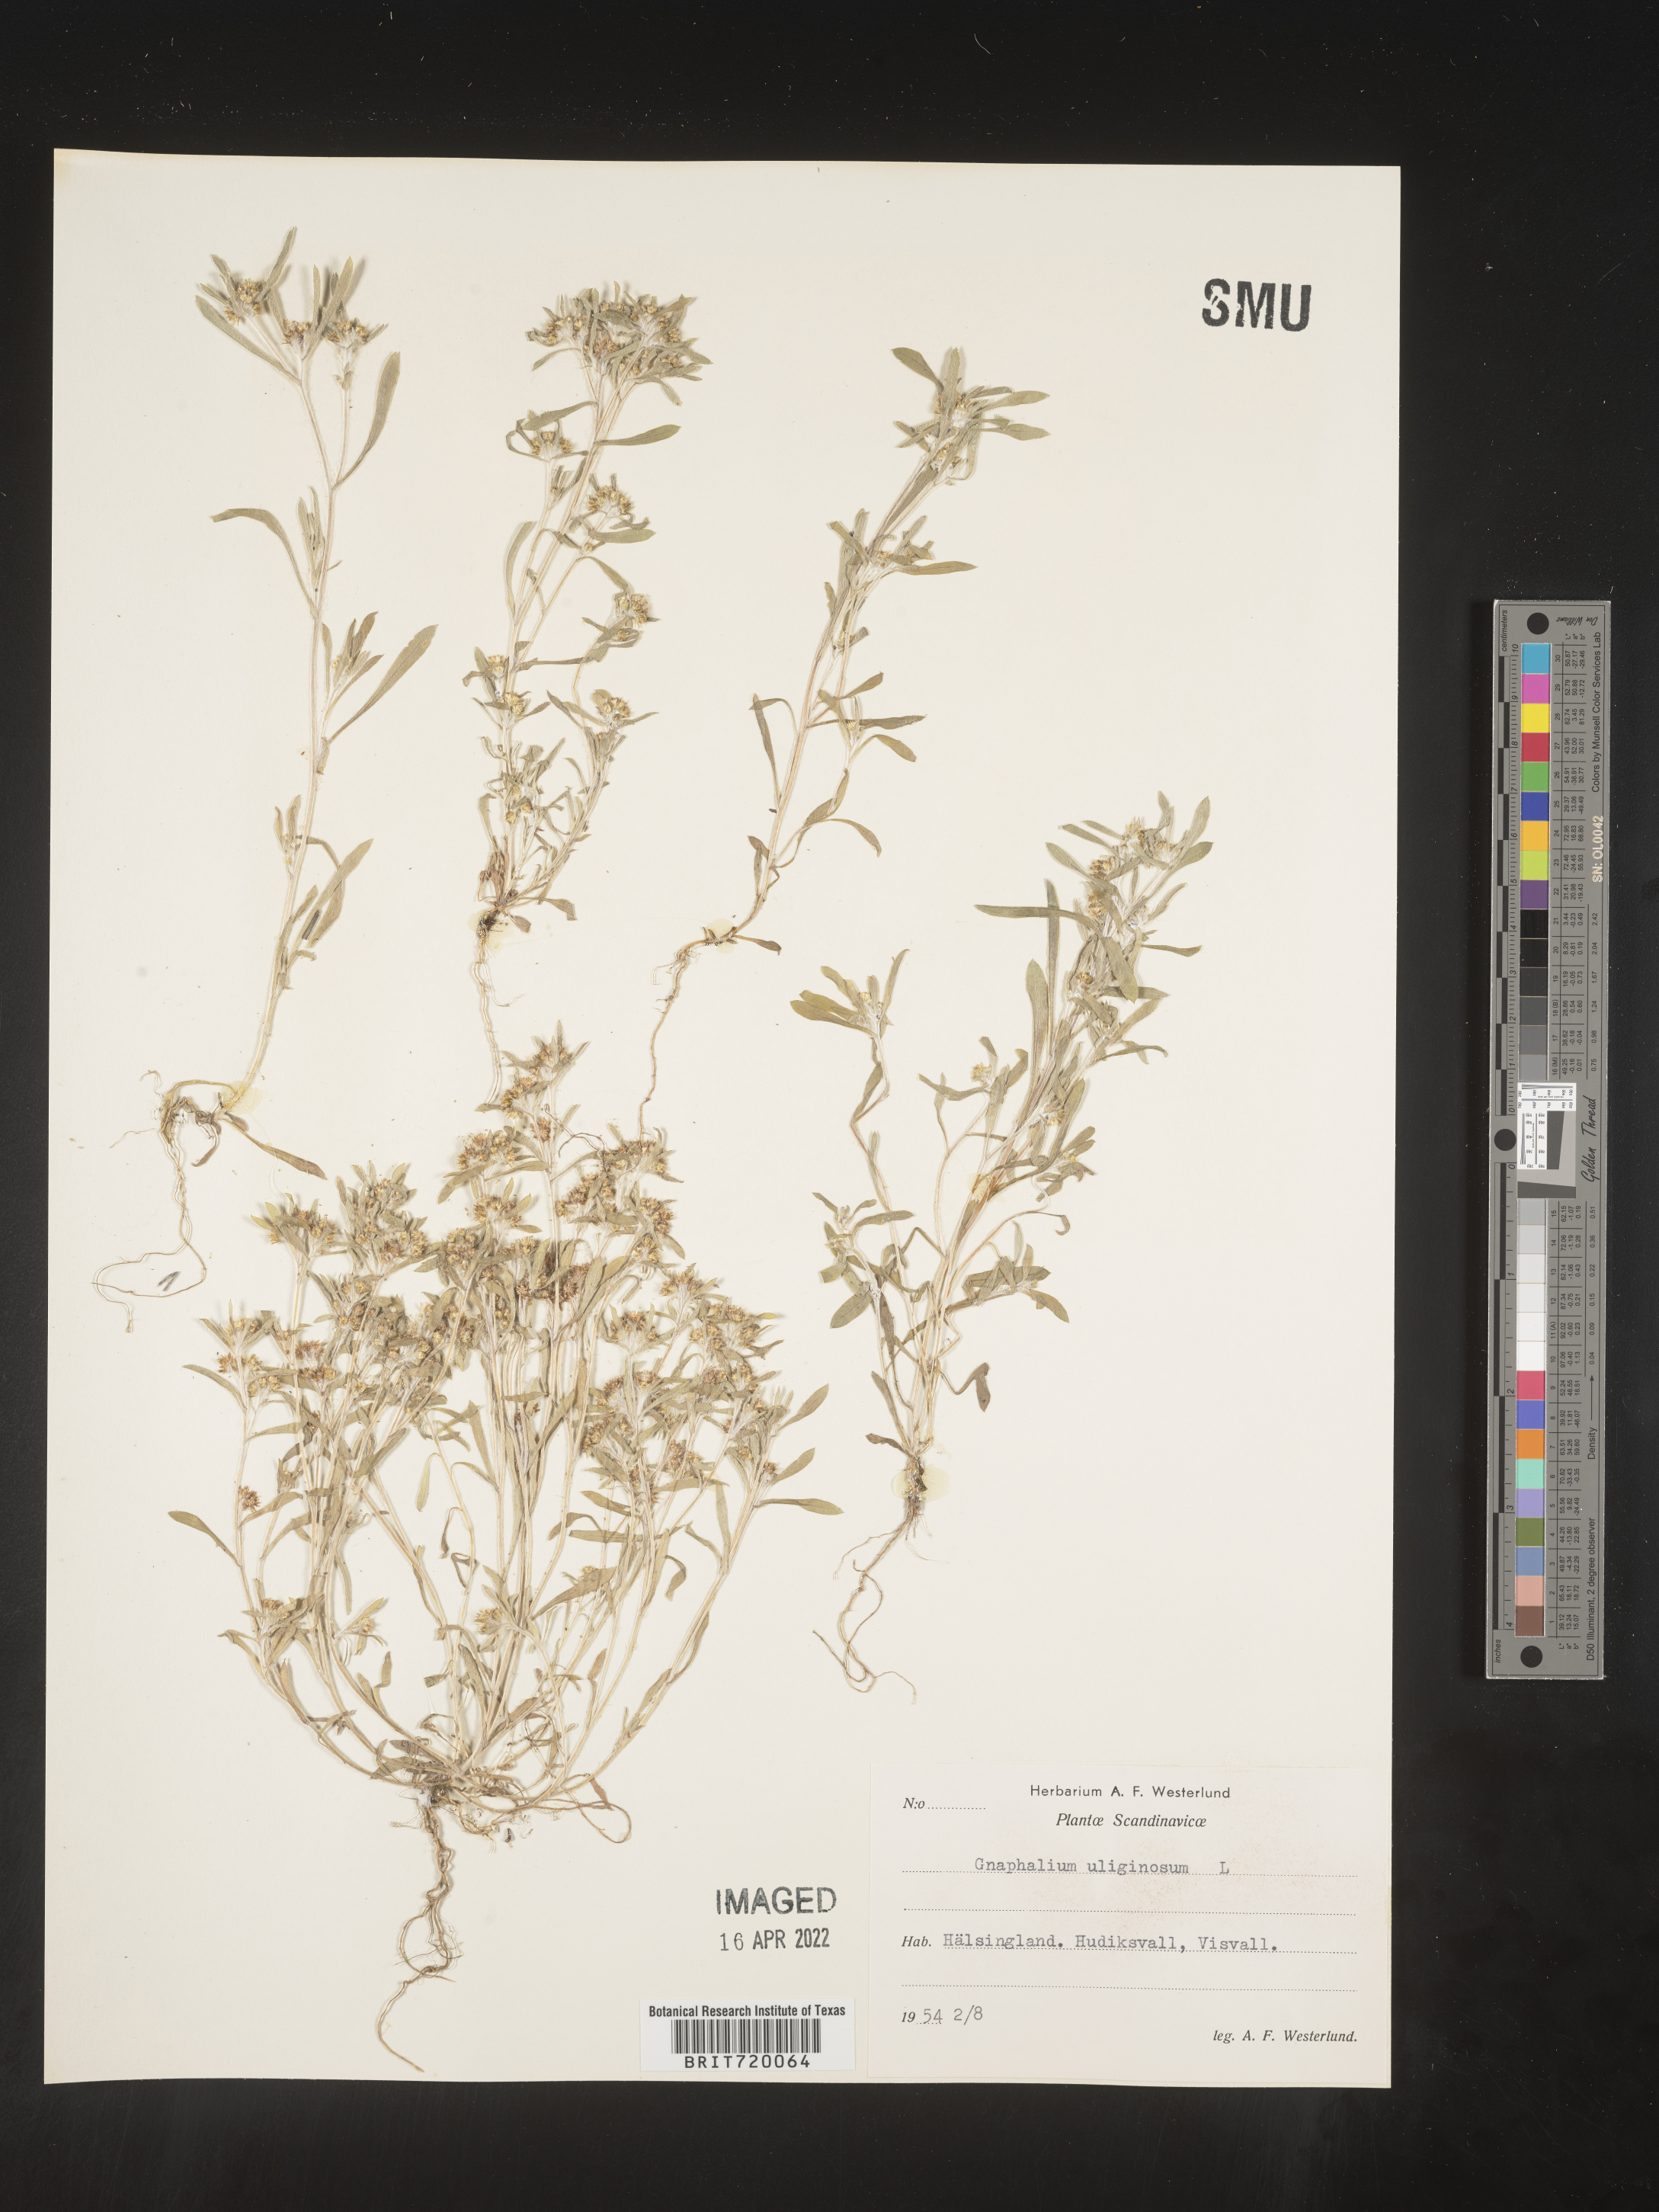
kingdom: Plantae
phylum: Tracheophyta
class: Magnoliopsida
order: Asterales
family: Asteraceae
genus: Gnaphalium
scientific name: Gnaphalium
